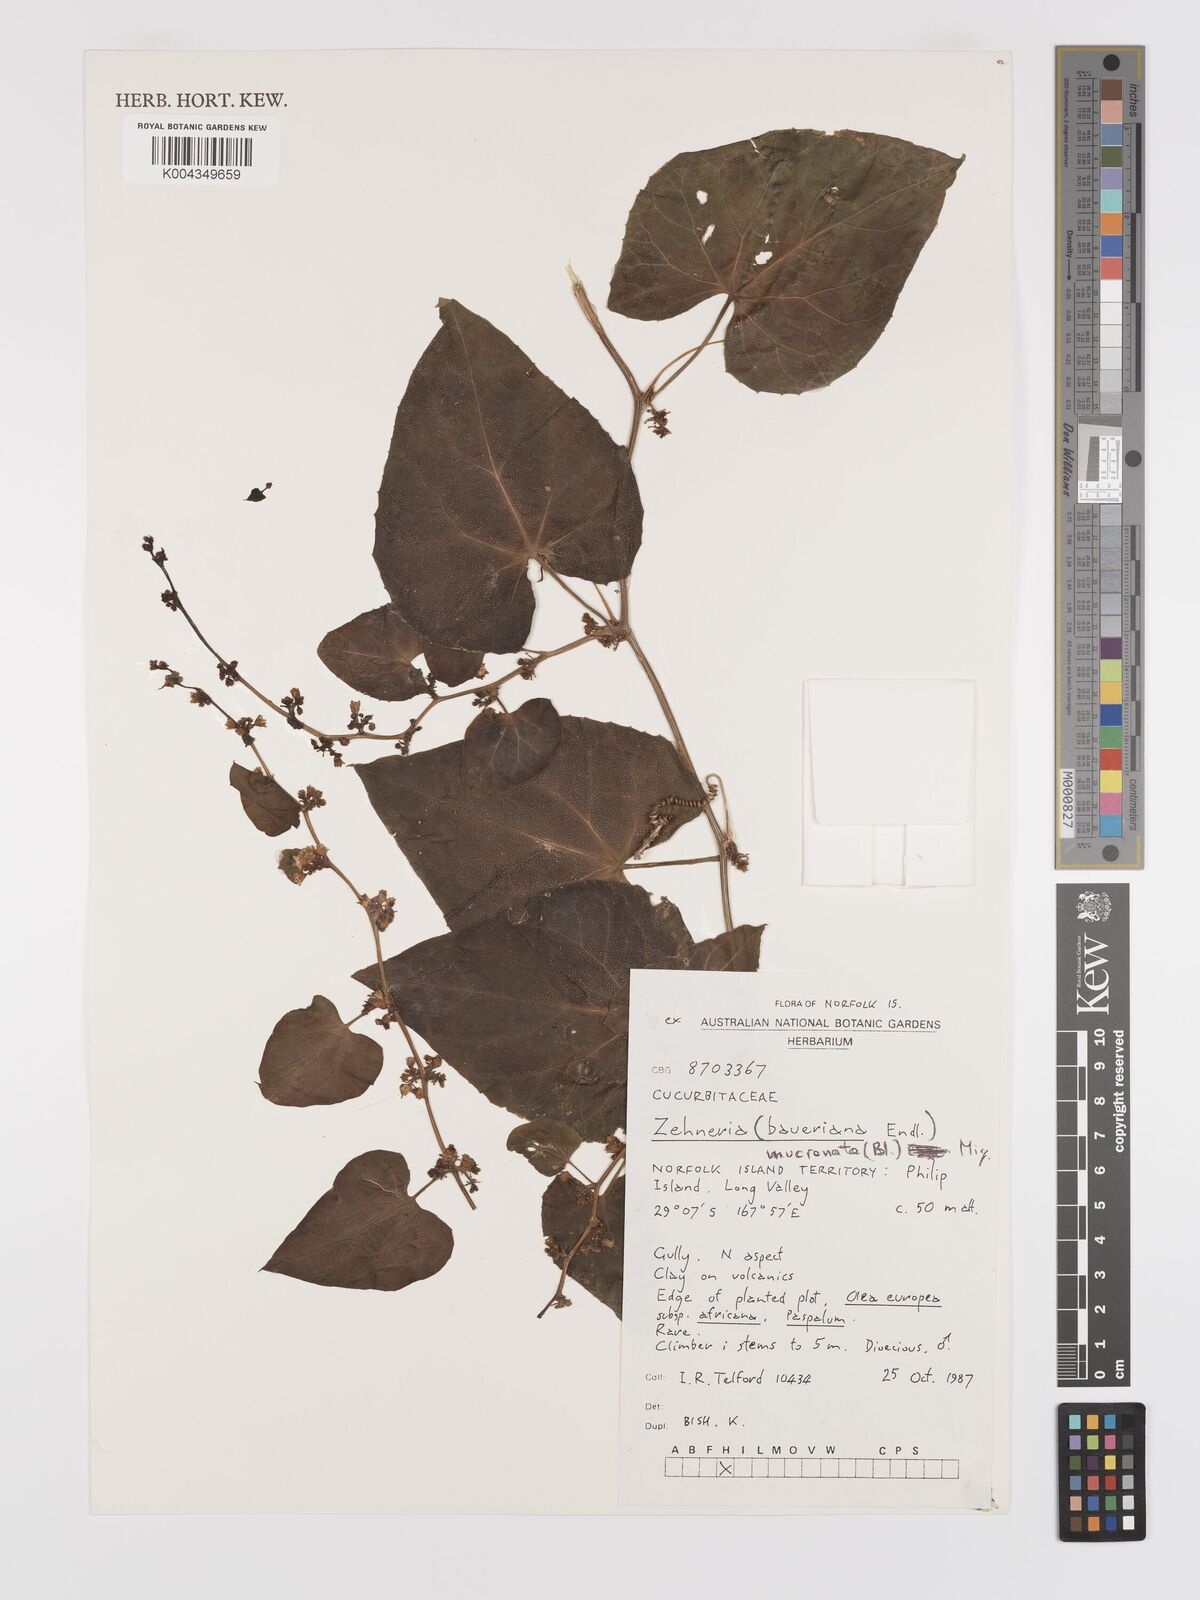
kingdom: Plantae
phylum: Tracheophyta
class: Magnoliopsida
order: Cucurbitales
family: Cucurbitaceae
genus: Zehneria
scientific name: Zehneria mucronata
